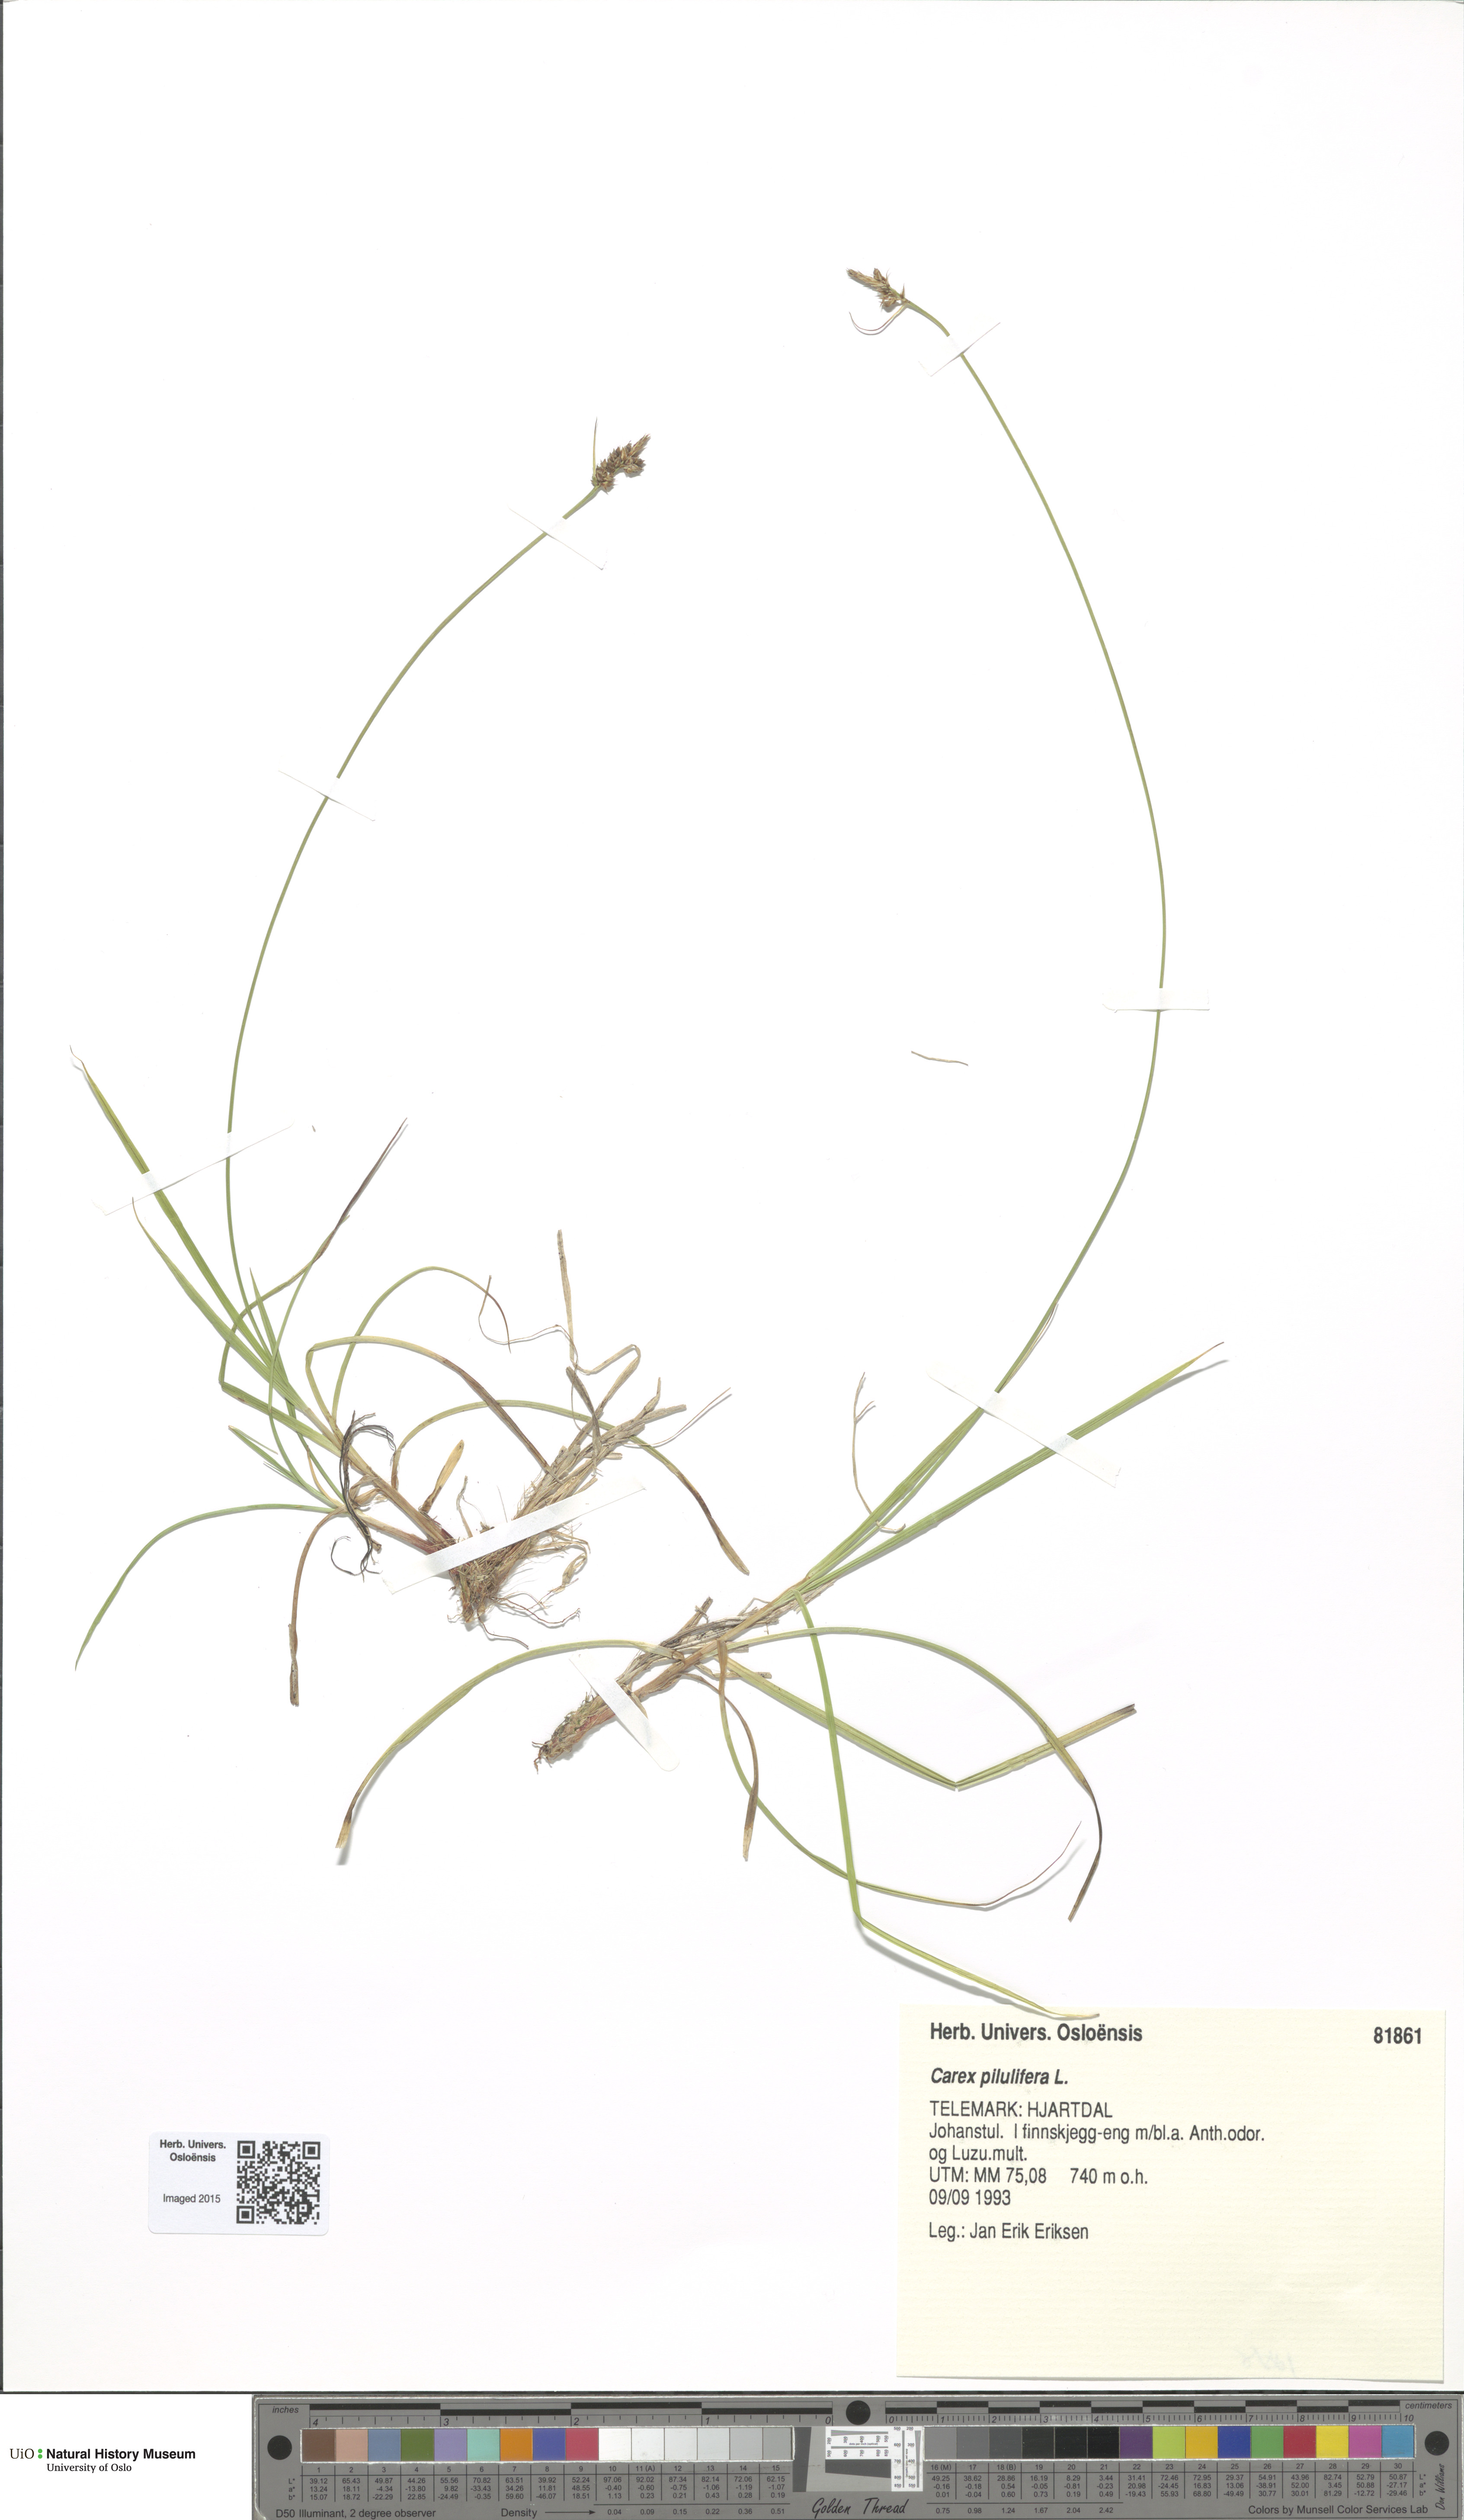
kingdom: Plantae
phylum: Tracheophyta
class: Liliopsida
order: Poales
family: Cyperaceae
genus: Carex
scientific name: Carex pilulifera
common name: Pill sedge
